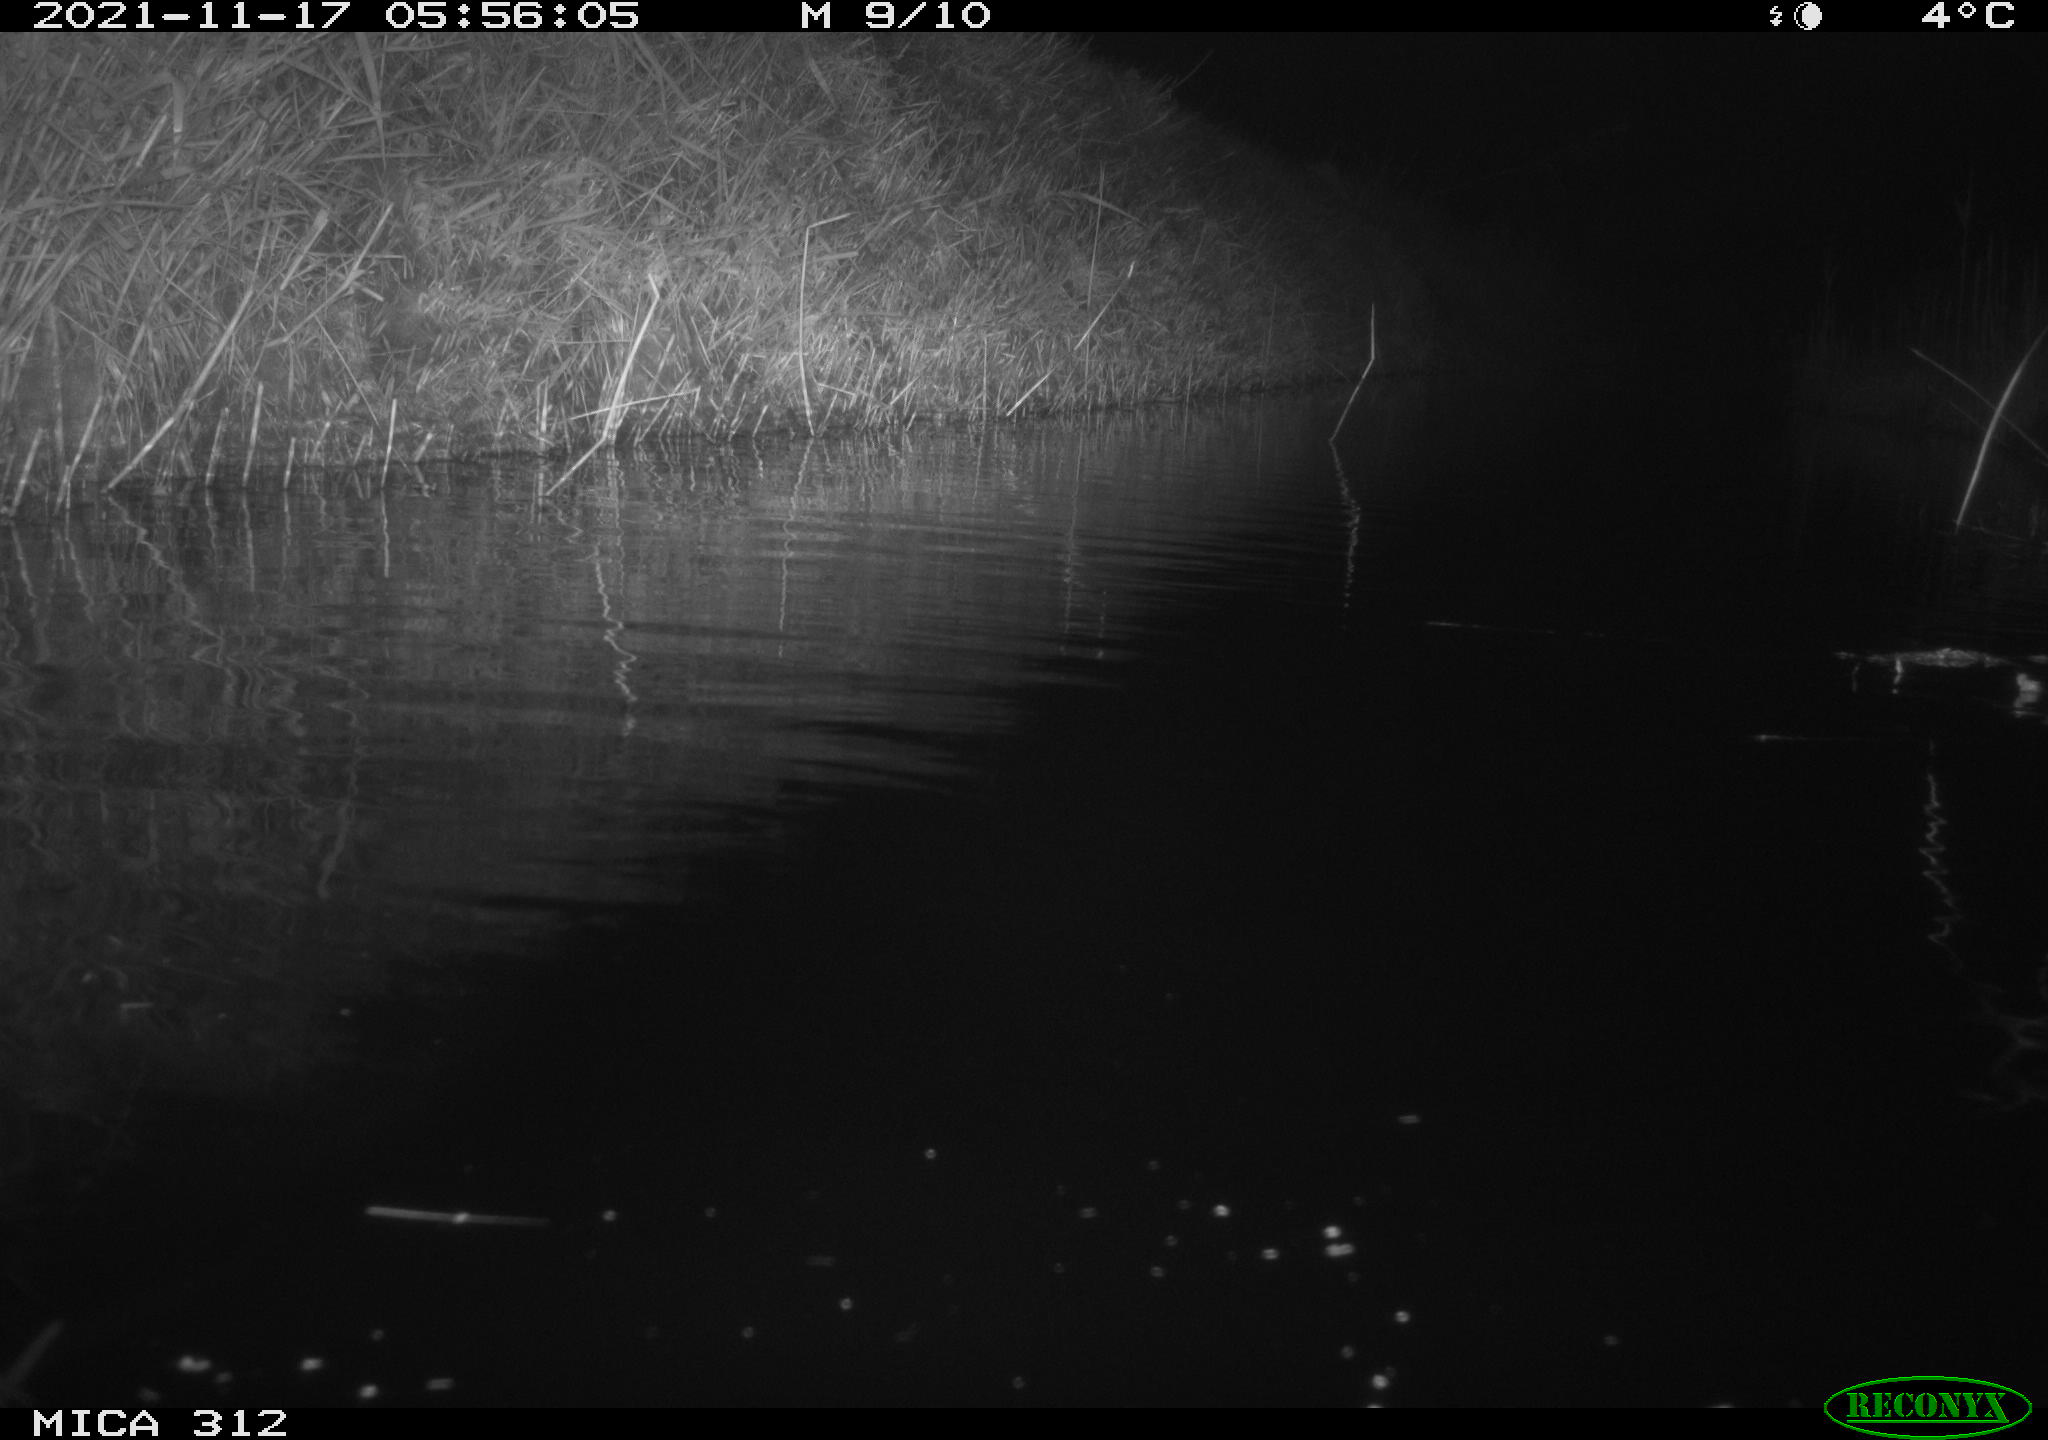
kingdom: Animalia
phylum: Chordata
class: Mammalia
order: Rodentia
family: Muridae
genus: Rattus
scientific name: Rattus norvegicus
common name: Brown rat
